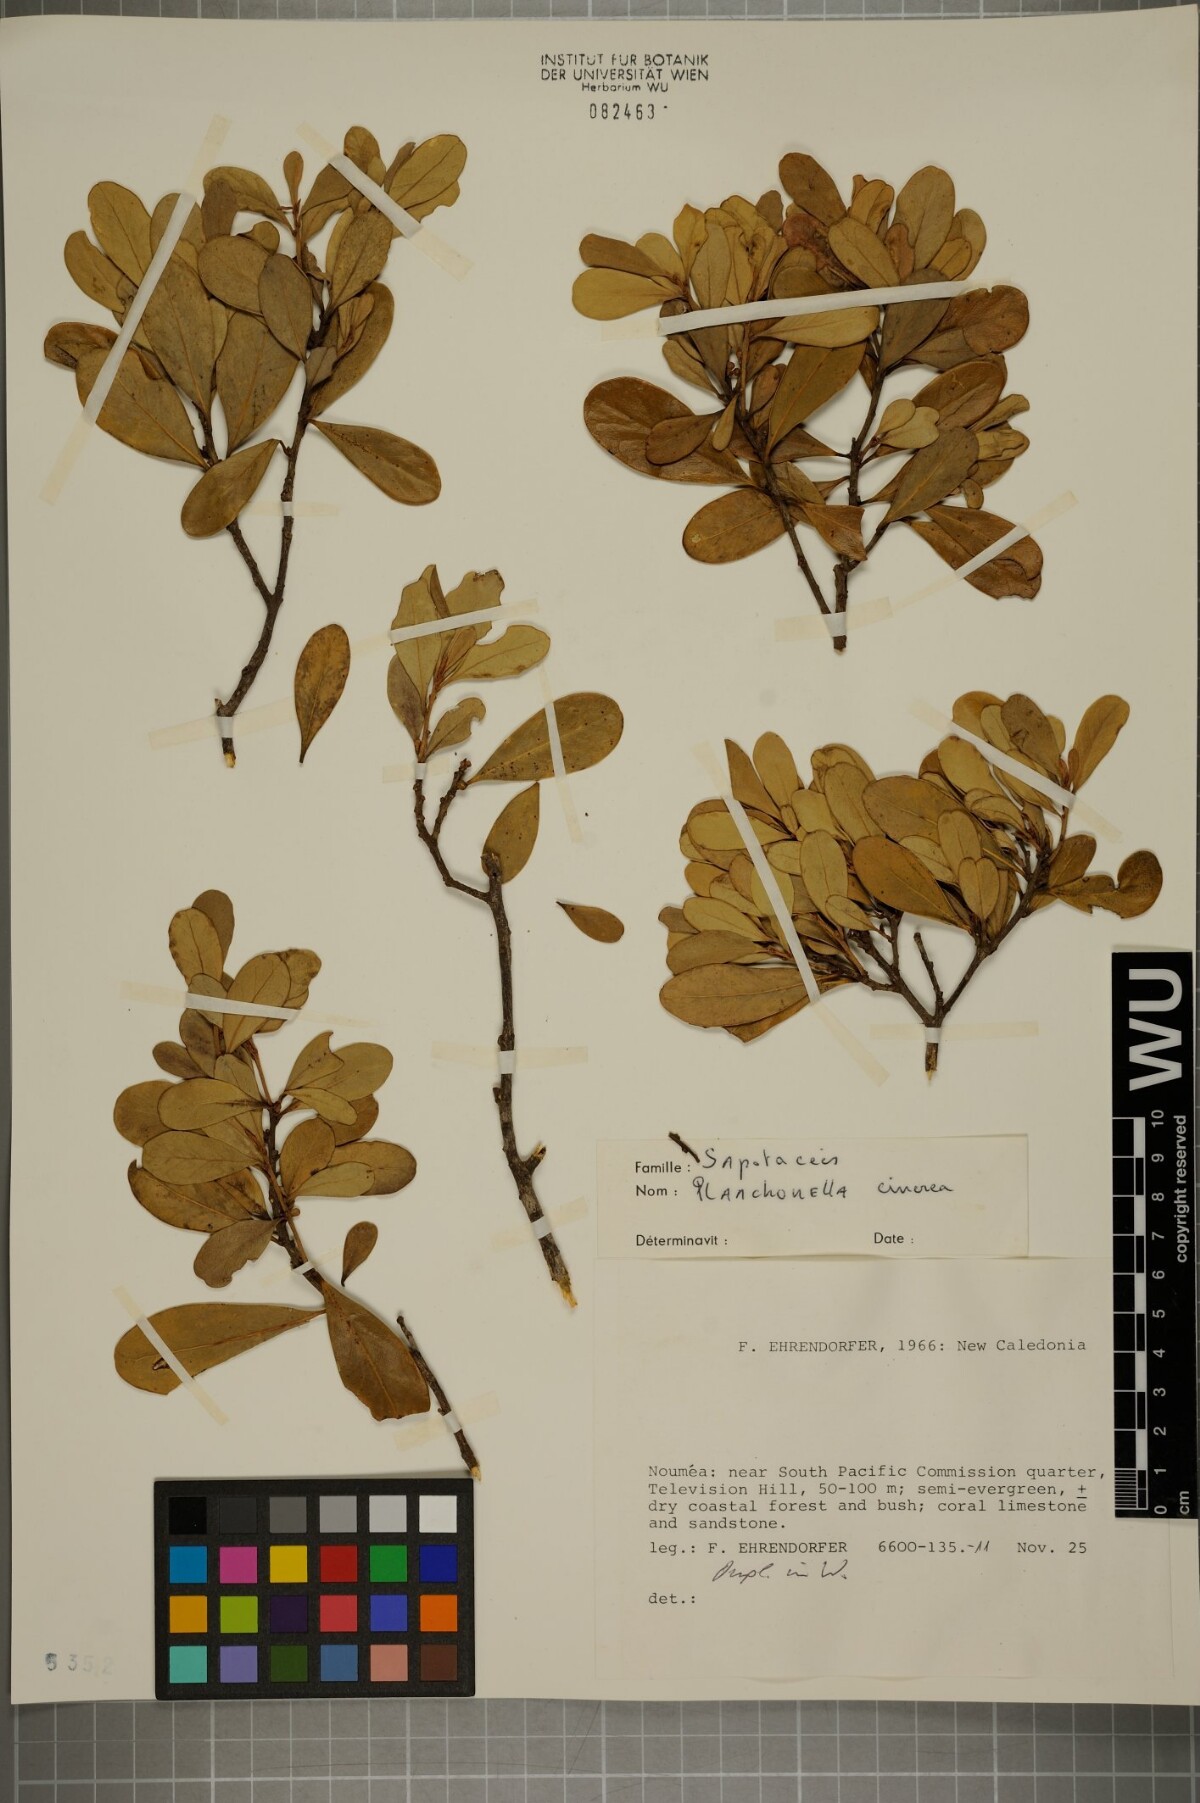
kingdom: Plantae
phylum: Tracheophyta
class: Magnoliopsida
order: Ericales
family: Sapotaceae
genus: Planchonella
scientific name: Planchonella cinerea
